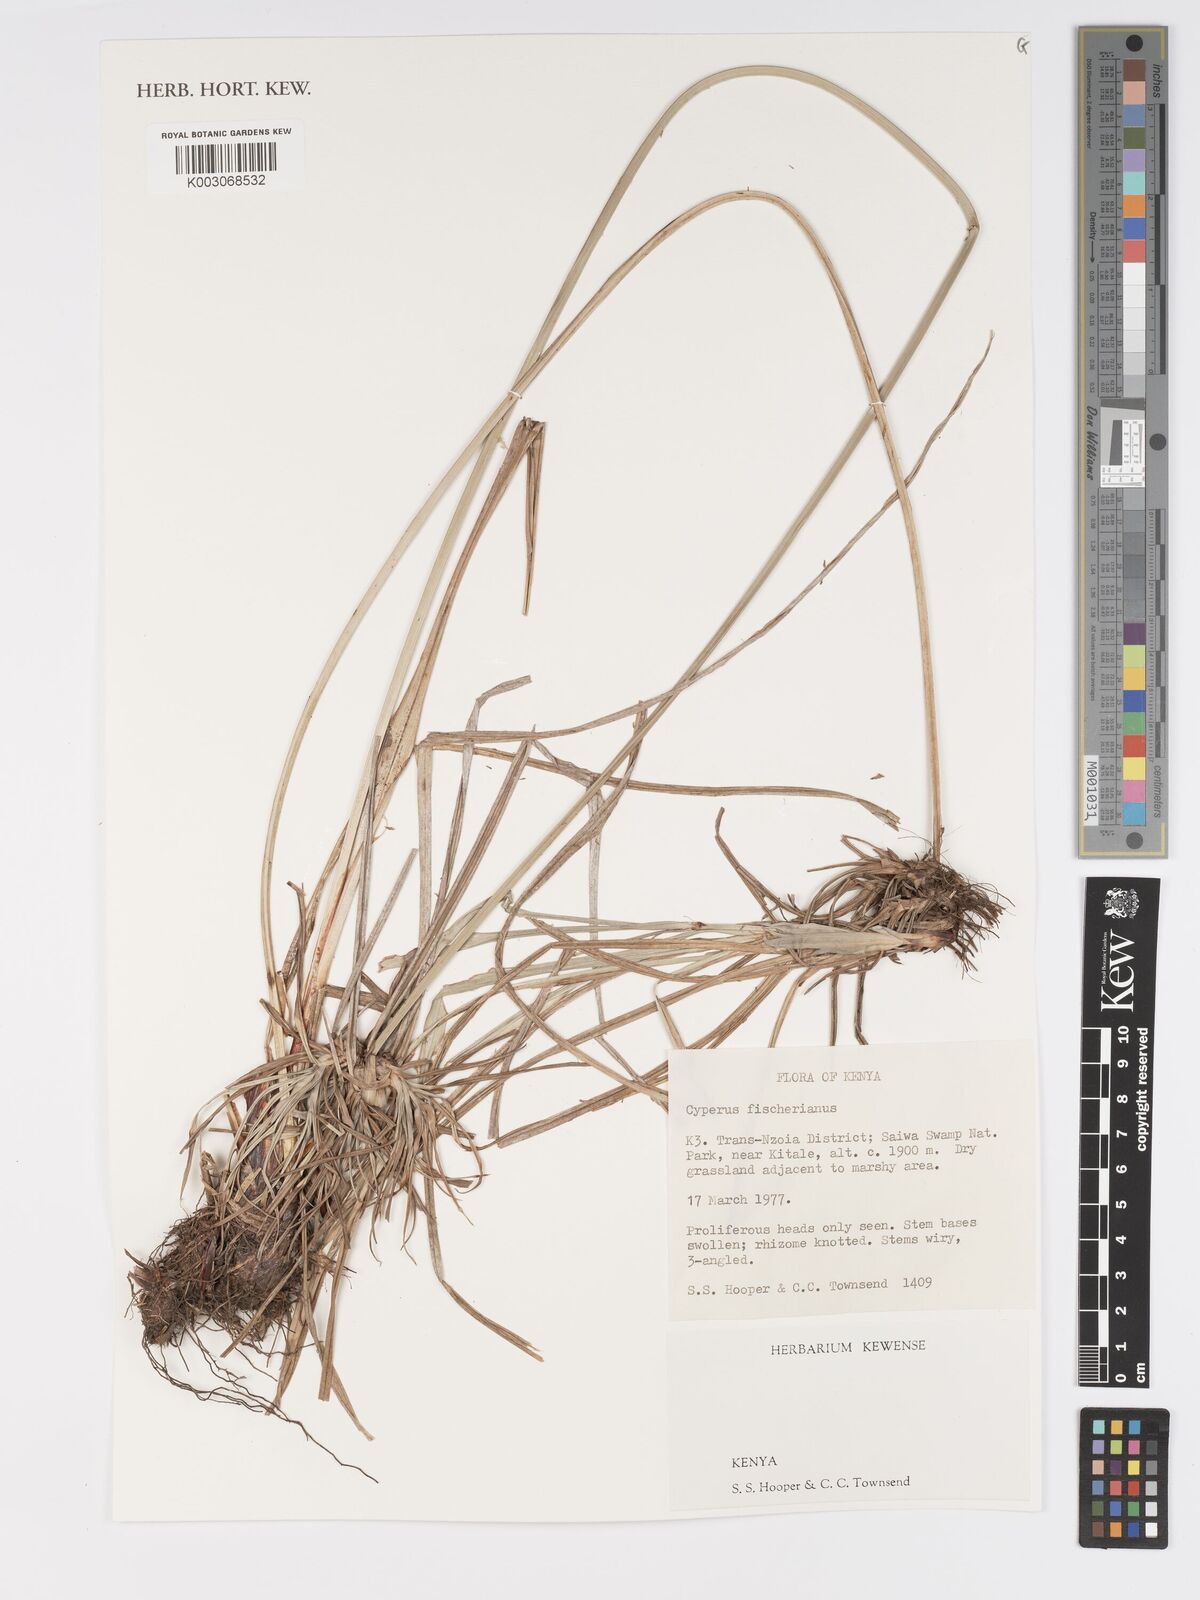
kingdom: Plantae
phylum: Tracheophyta
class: Liliopsida
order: Poales
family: Cyperaceae
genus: Cyperus
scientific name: Cyperus fischerianus
